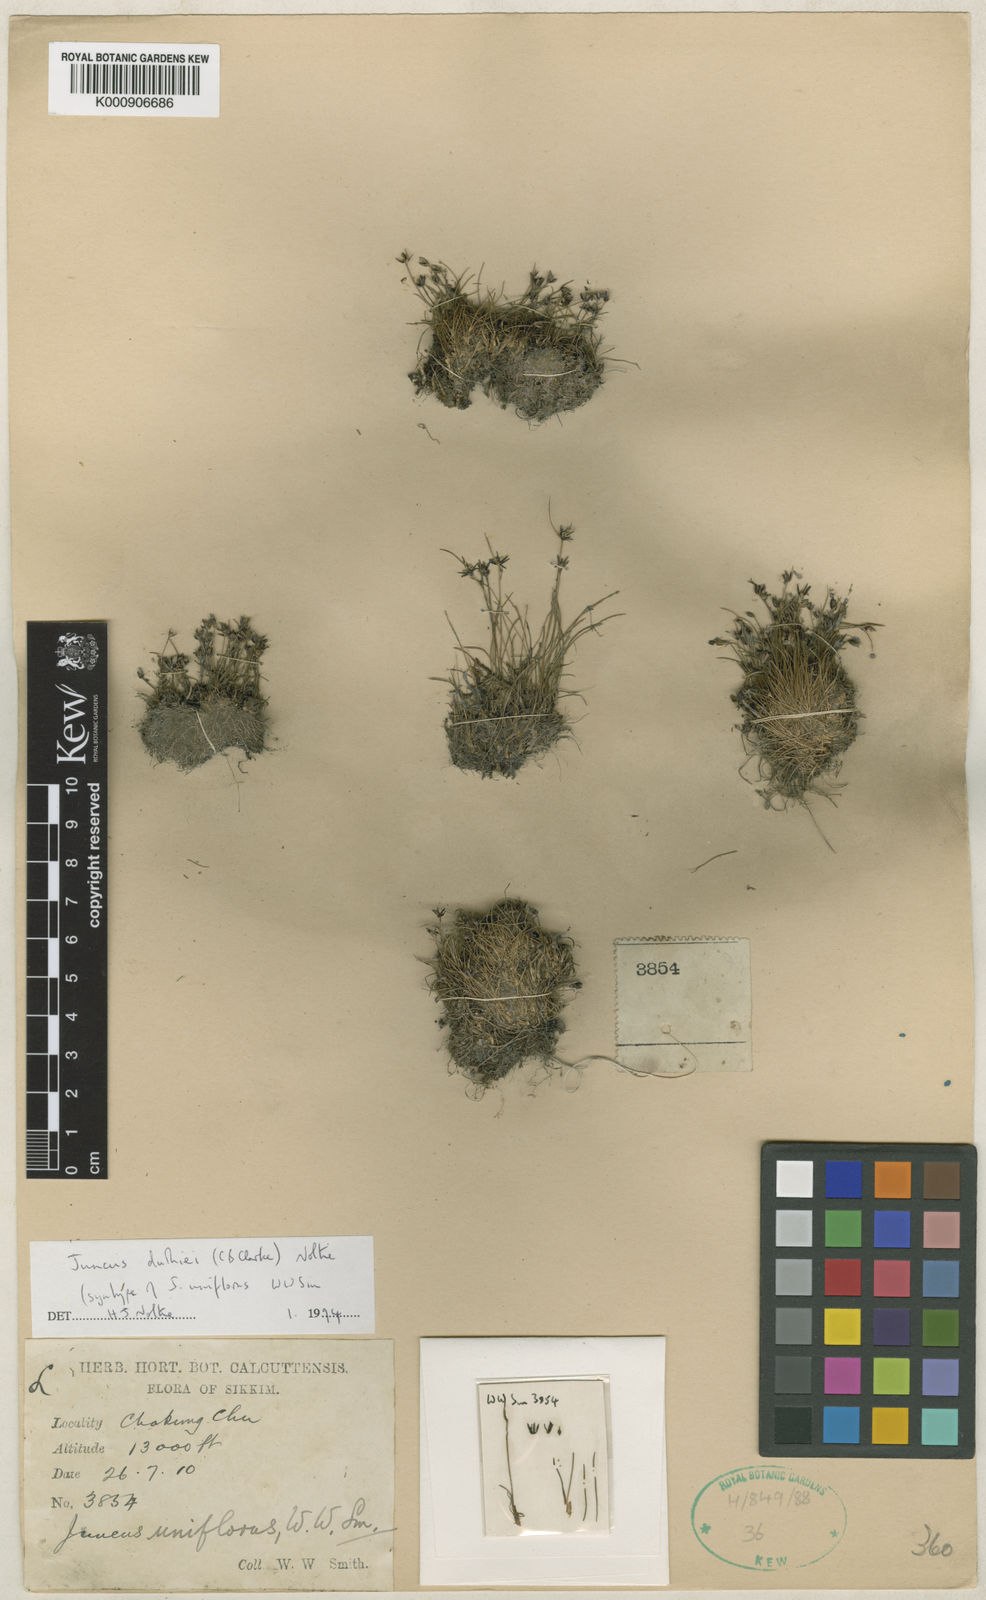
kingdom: Plantae
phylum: Tracheophyta
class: Liliopsida
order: Poales
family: Juncaceae
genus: Juncus
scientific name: Juncus duthiei
